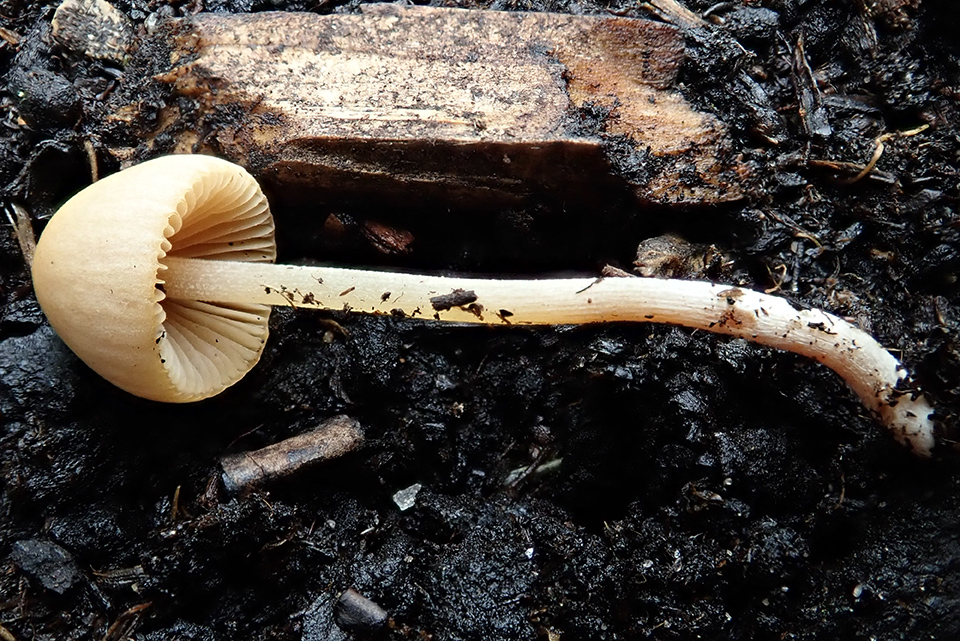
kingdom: Fungi
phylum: Basidiomycota
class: Agaricomycetes
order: Agaricales
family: Bolbitiaceae
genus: Conocybe
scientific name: Conocybe siliginea
